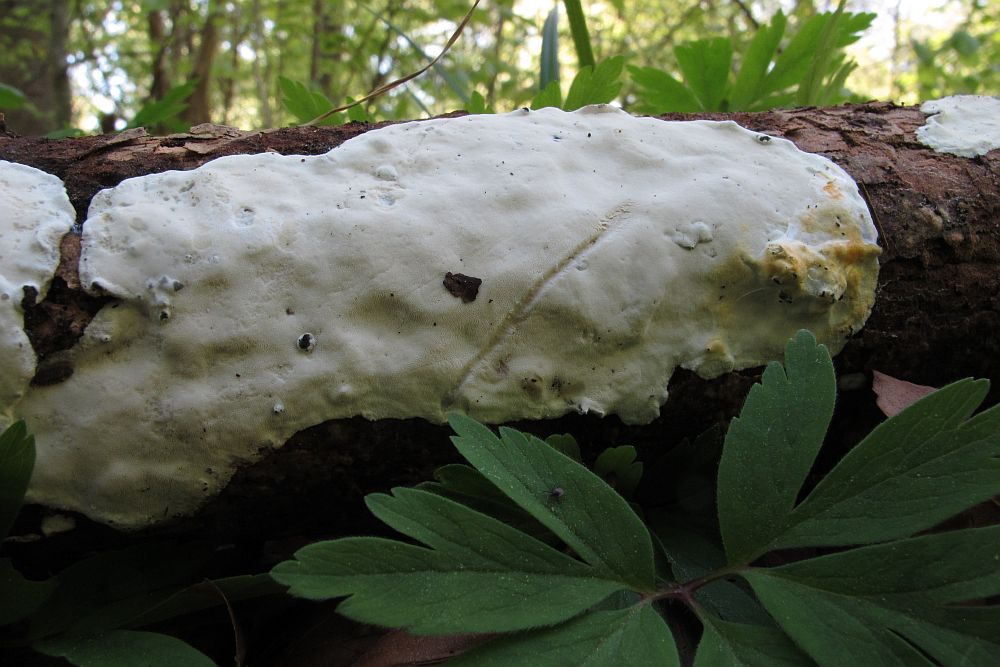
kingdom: Fungi
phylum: Basidiomycota
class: Agaricomycetes
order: Polyporales
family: Incrustoporiaceae
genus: Skeletocutis
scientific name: Skeletocutis nemoralis
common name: stor krystalporesvamp
